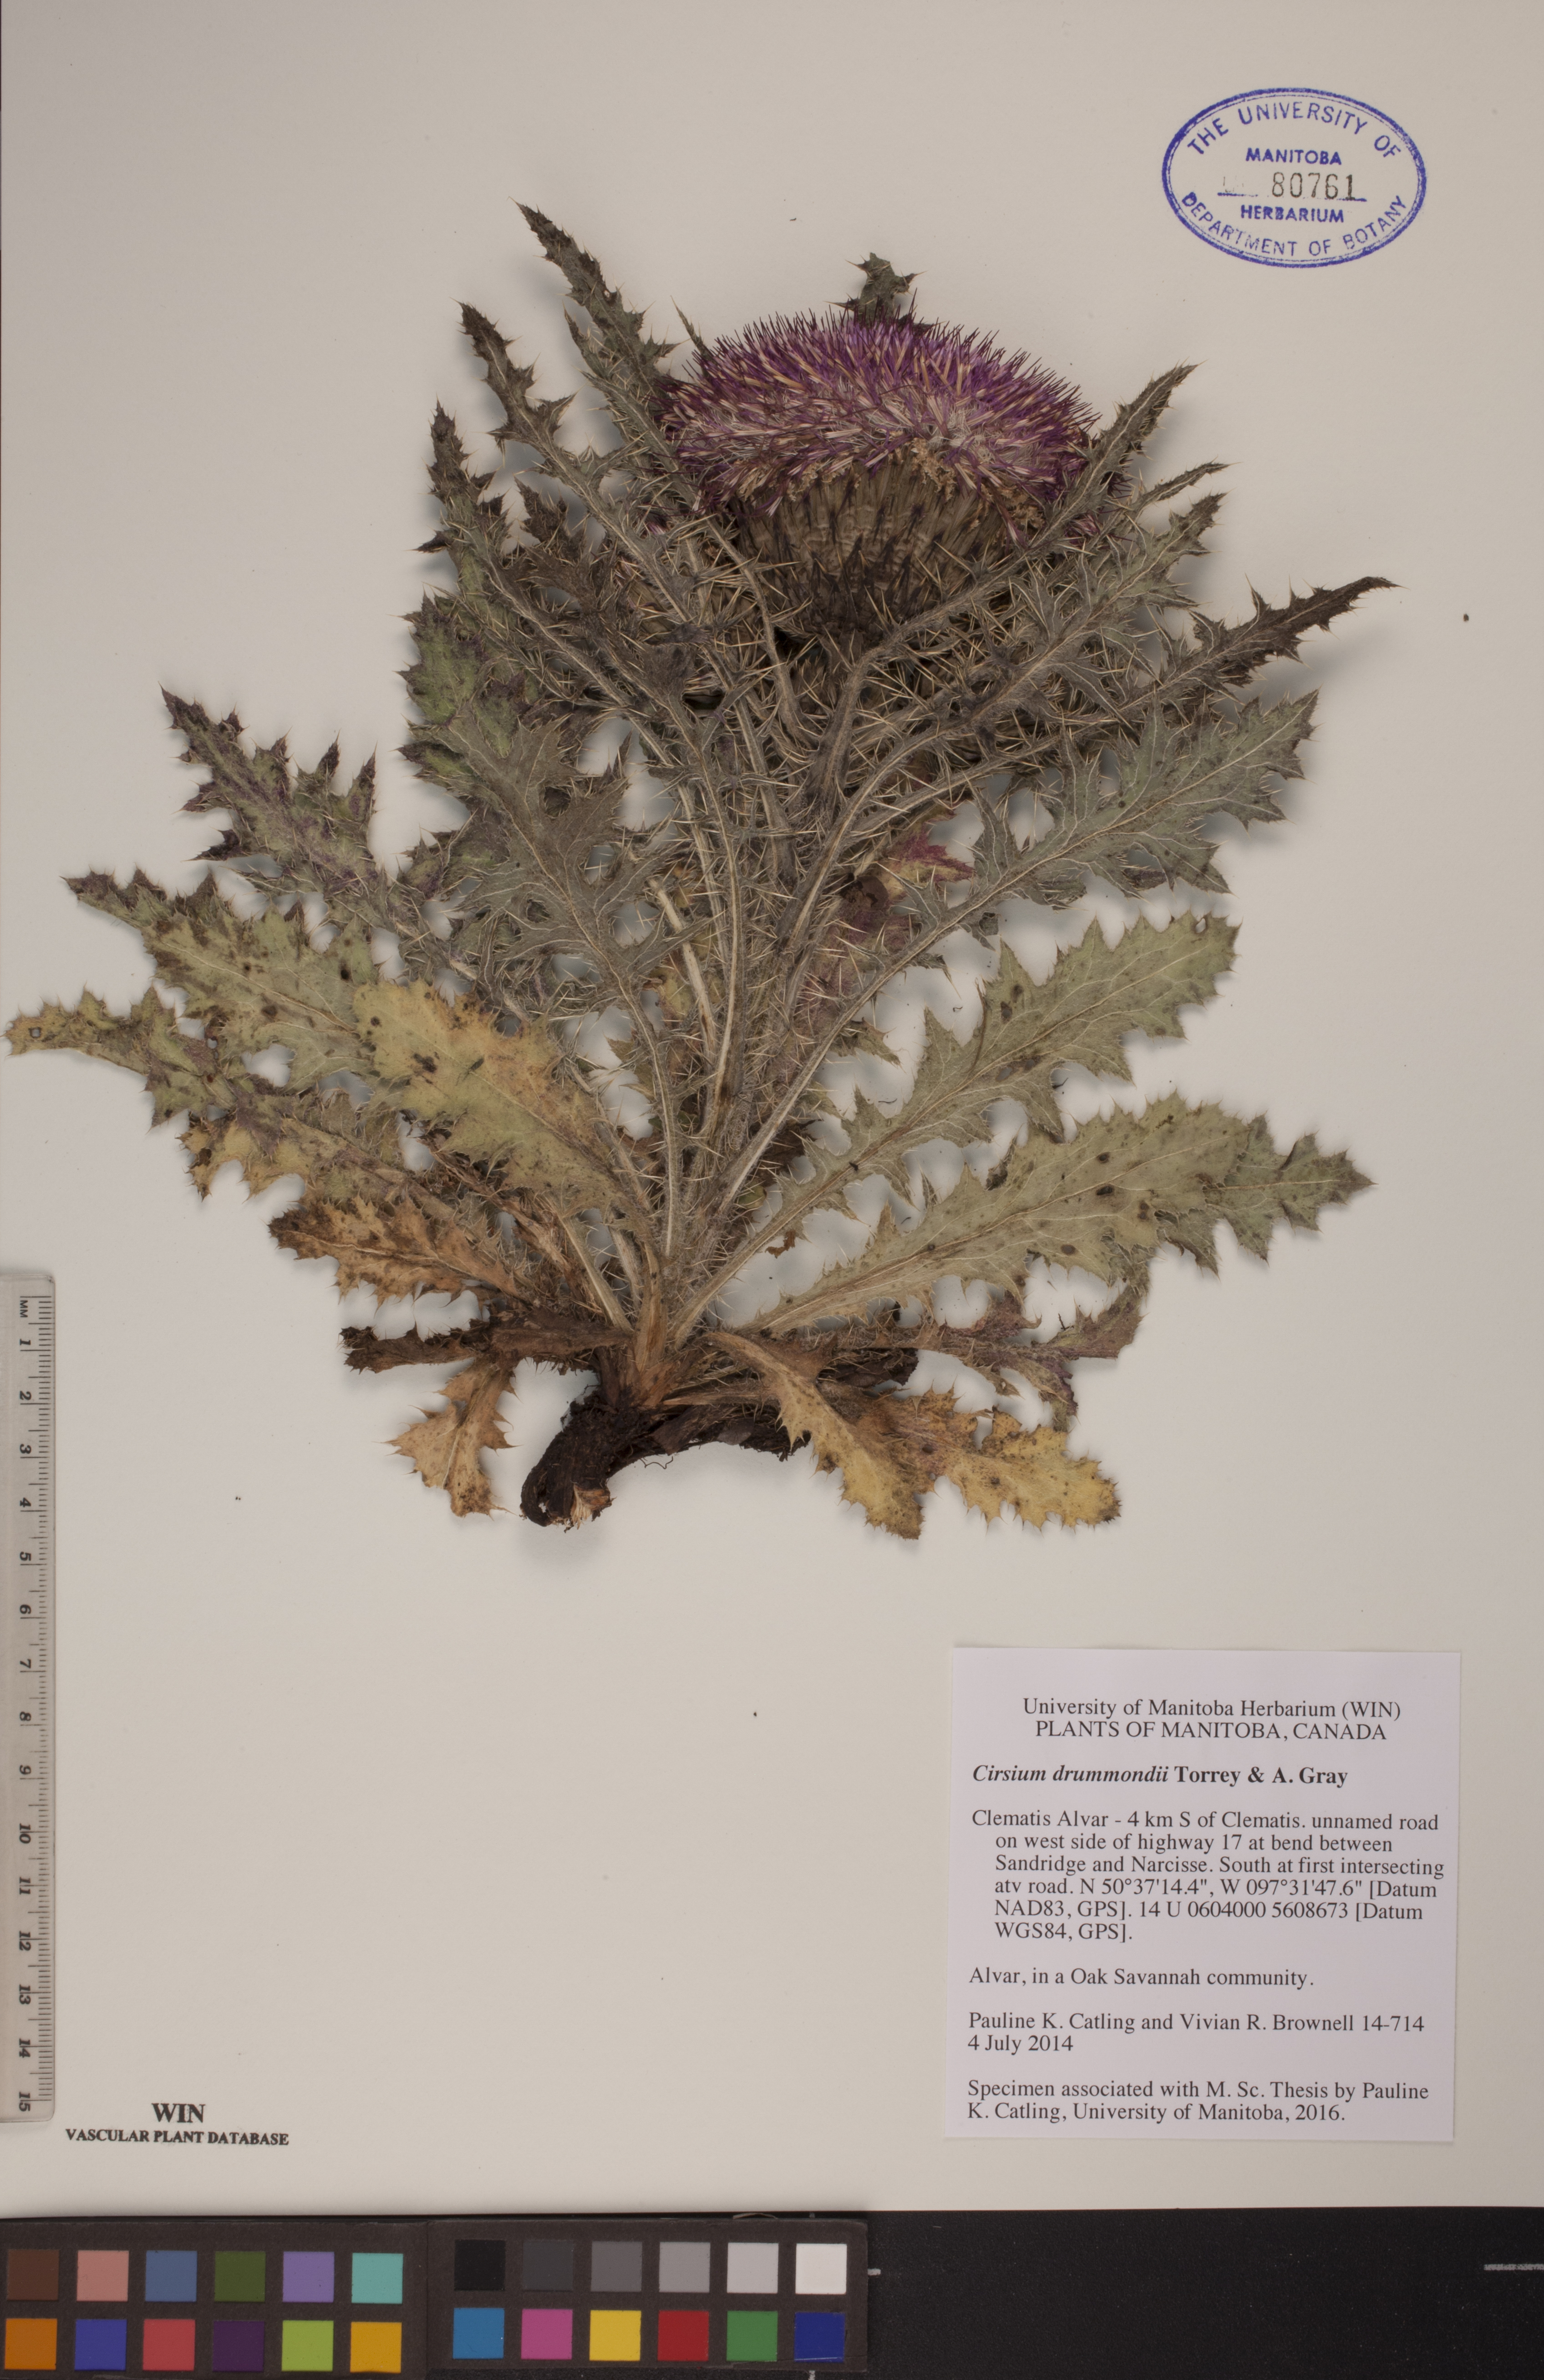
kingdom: Plantae
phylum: Tracheophyta
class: Magnoliopsida
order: Asterales
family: Asteraceae
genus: Cirsium
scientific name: Cirsium drummondii
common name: Drummond's thistle
